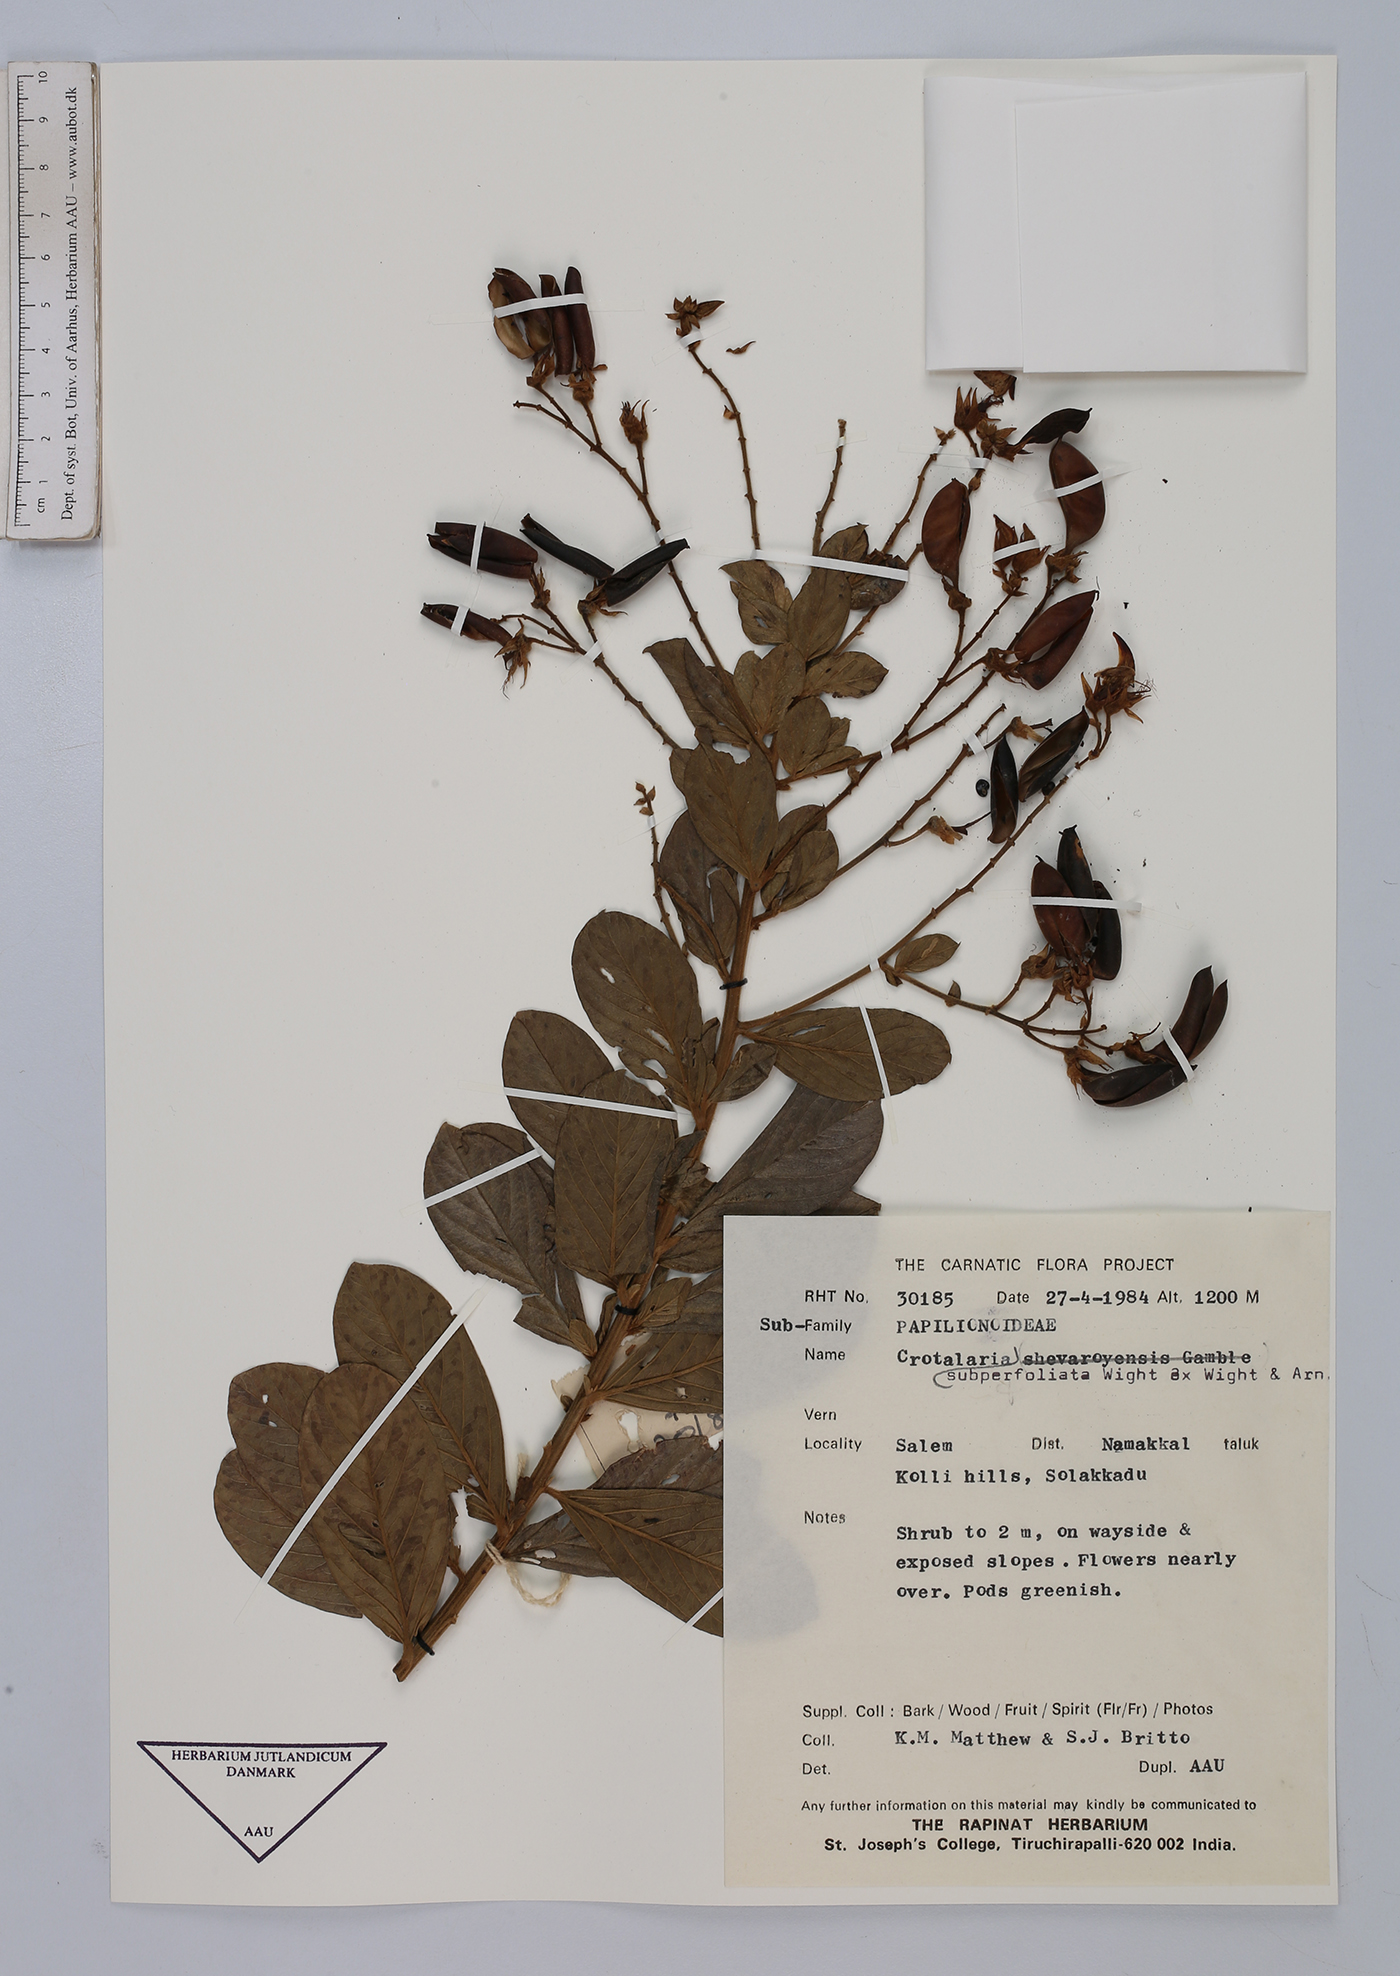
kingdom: Plantae
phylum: Tracheophyta
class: Magnoliopsida
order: Fabales
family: Fabaceae
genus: Crotalaria
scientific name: Crotalaria subperfoliata
